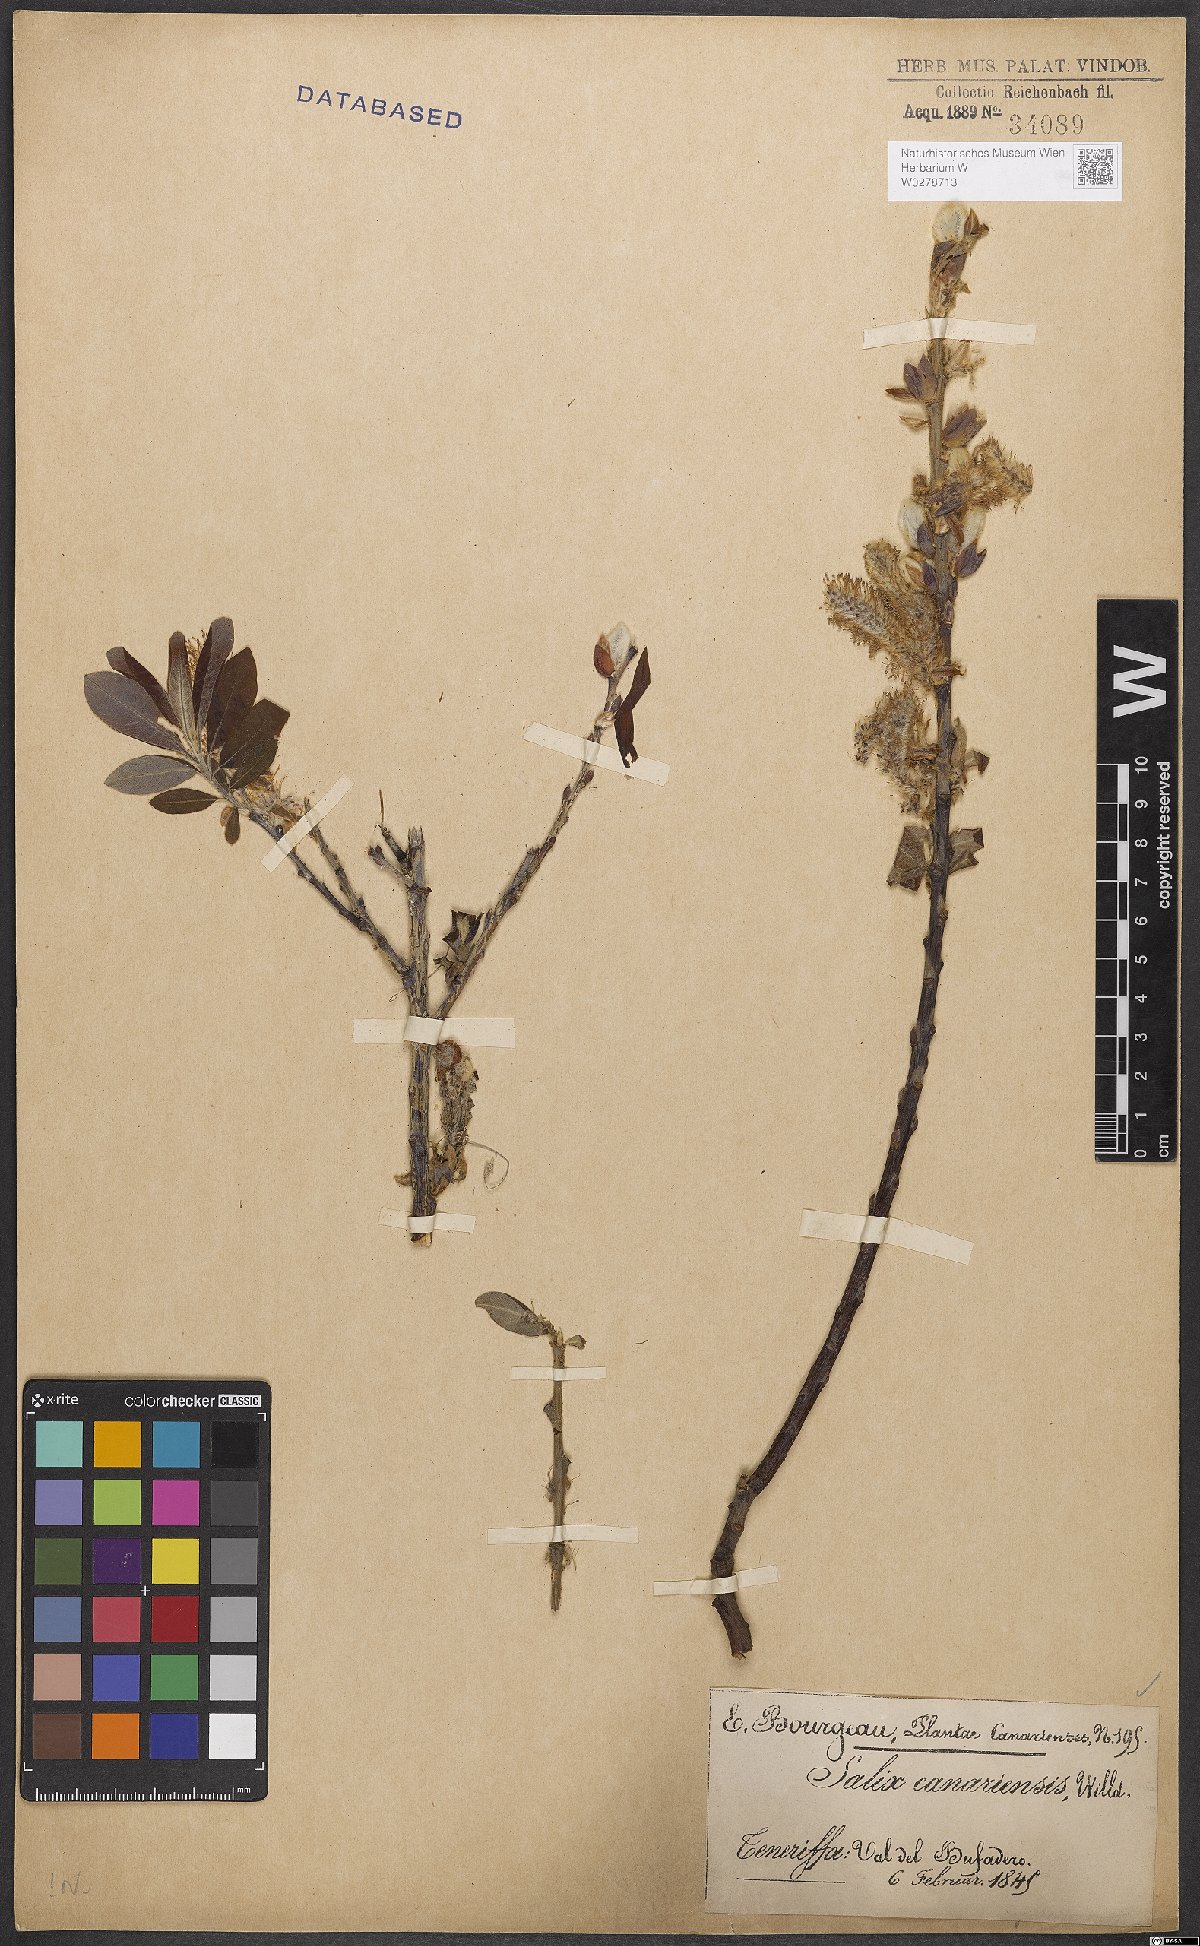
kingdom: Plantae
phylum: Tracheophyta
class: Magnoliopsida
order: Malpighiales
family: Salicaceae
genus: Salix
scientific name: Salix canariensis
